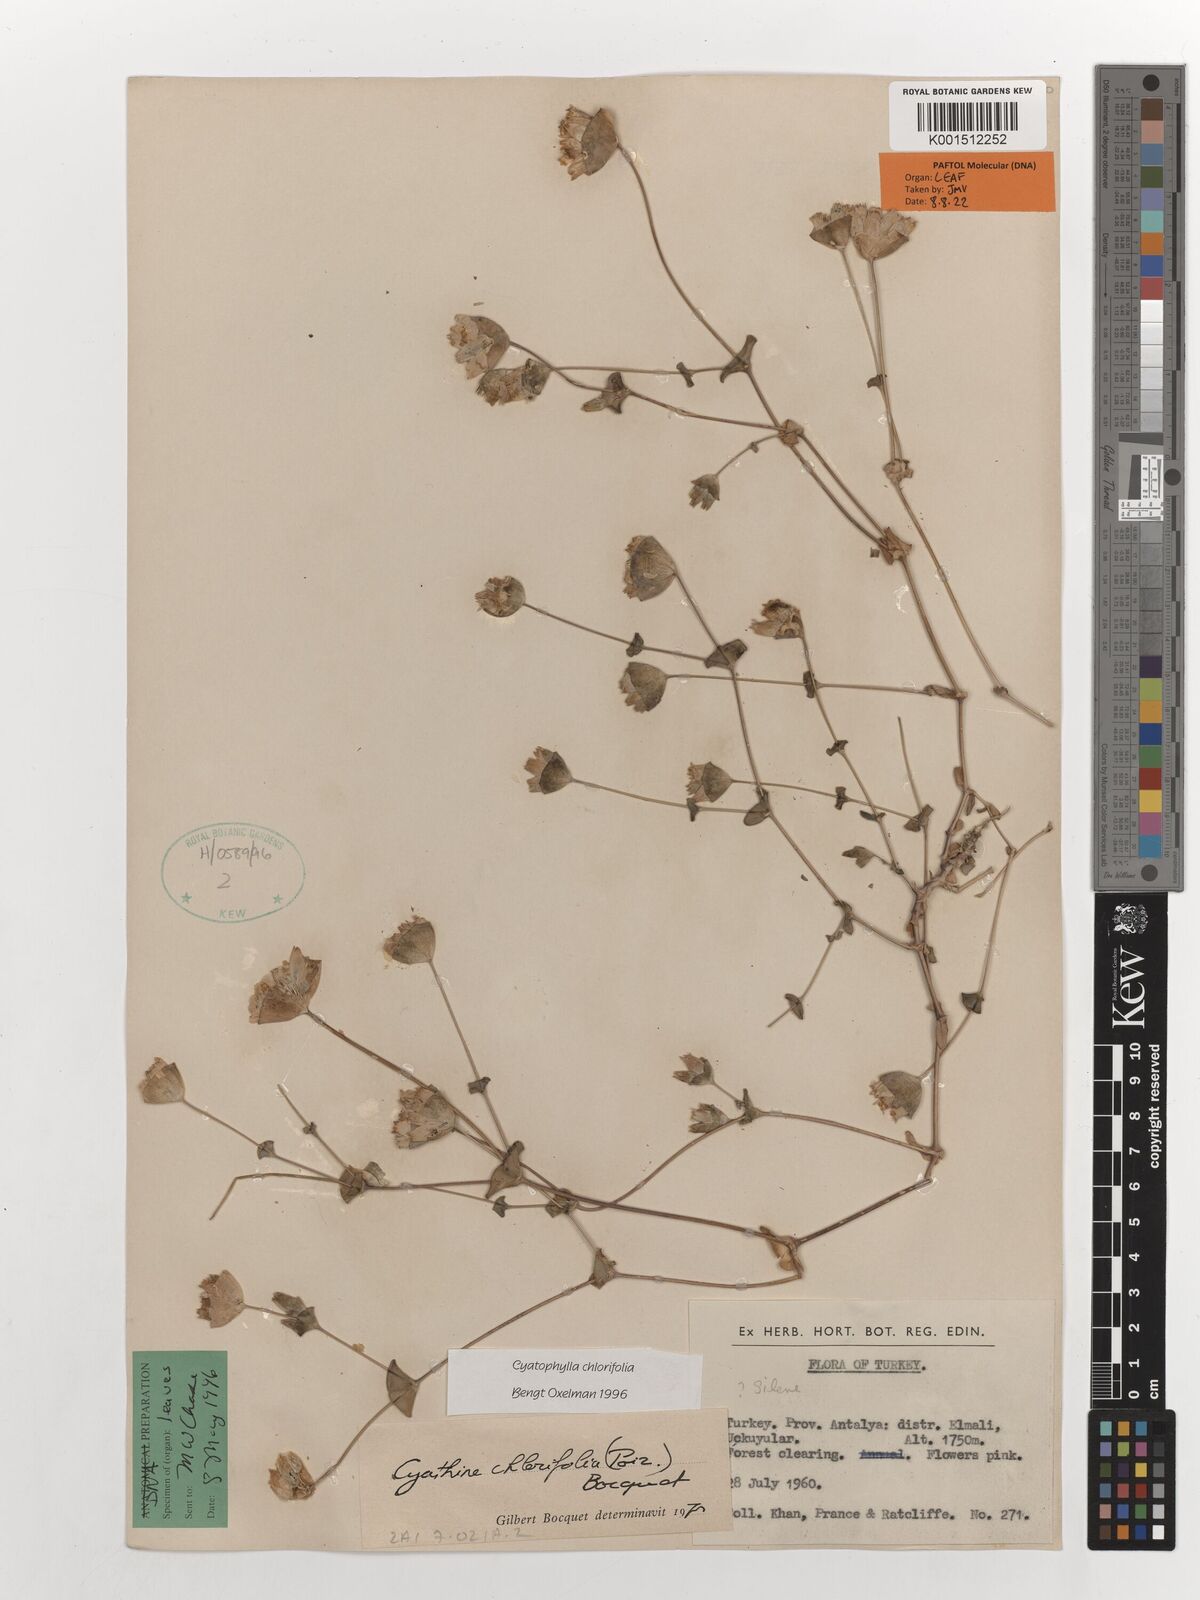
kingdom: Plantae
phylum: Tracheophyta
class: Magnoliopsida
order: Caryophyllales
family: Caryophyllaceae
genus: Cyathophylla
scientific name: Cyathophylla chlorifolia
